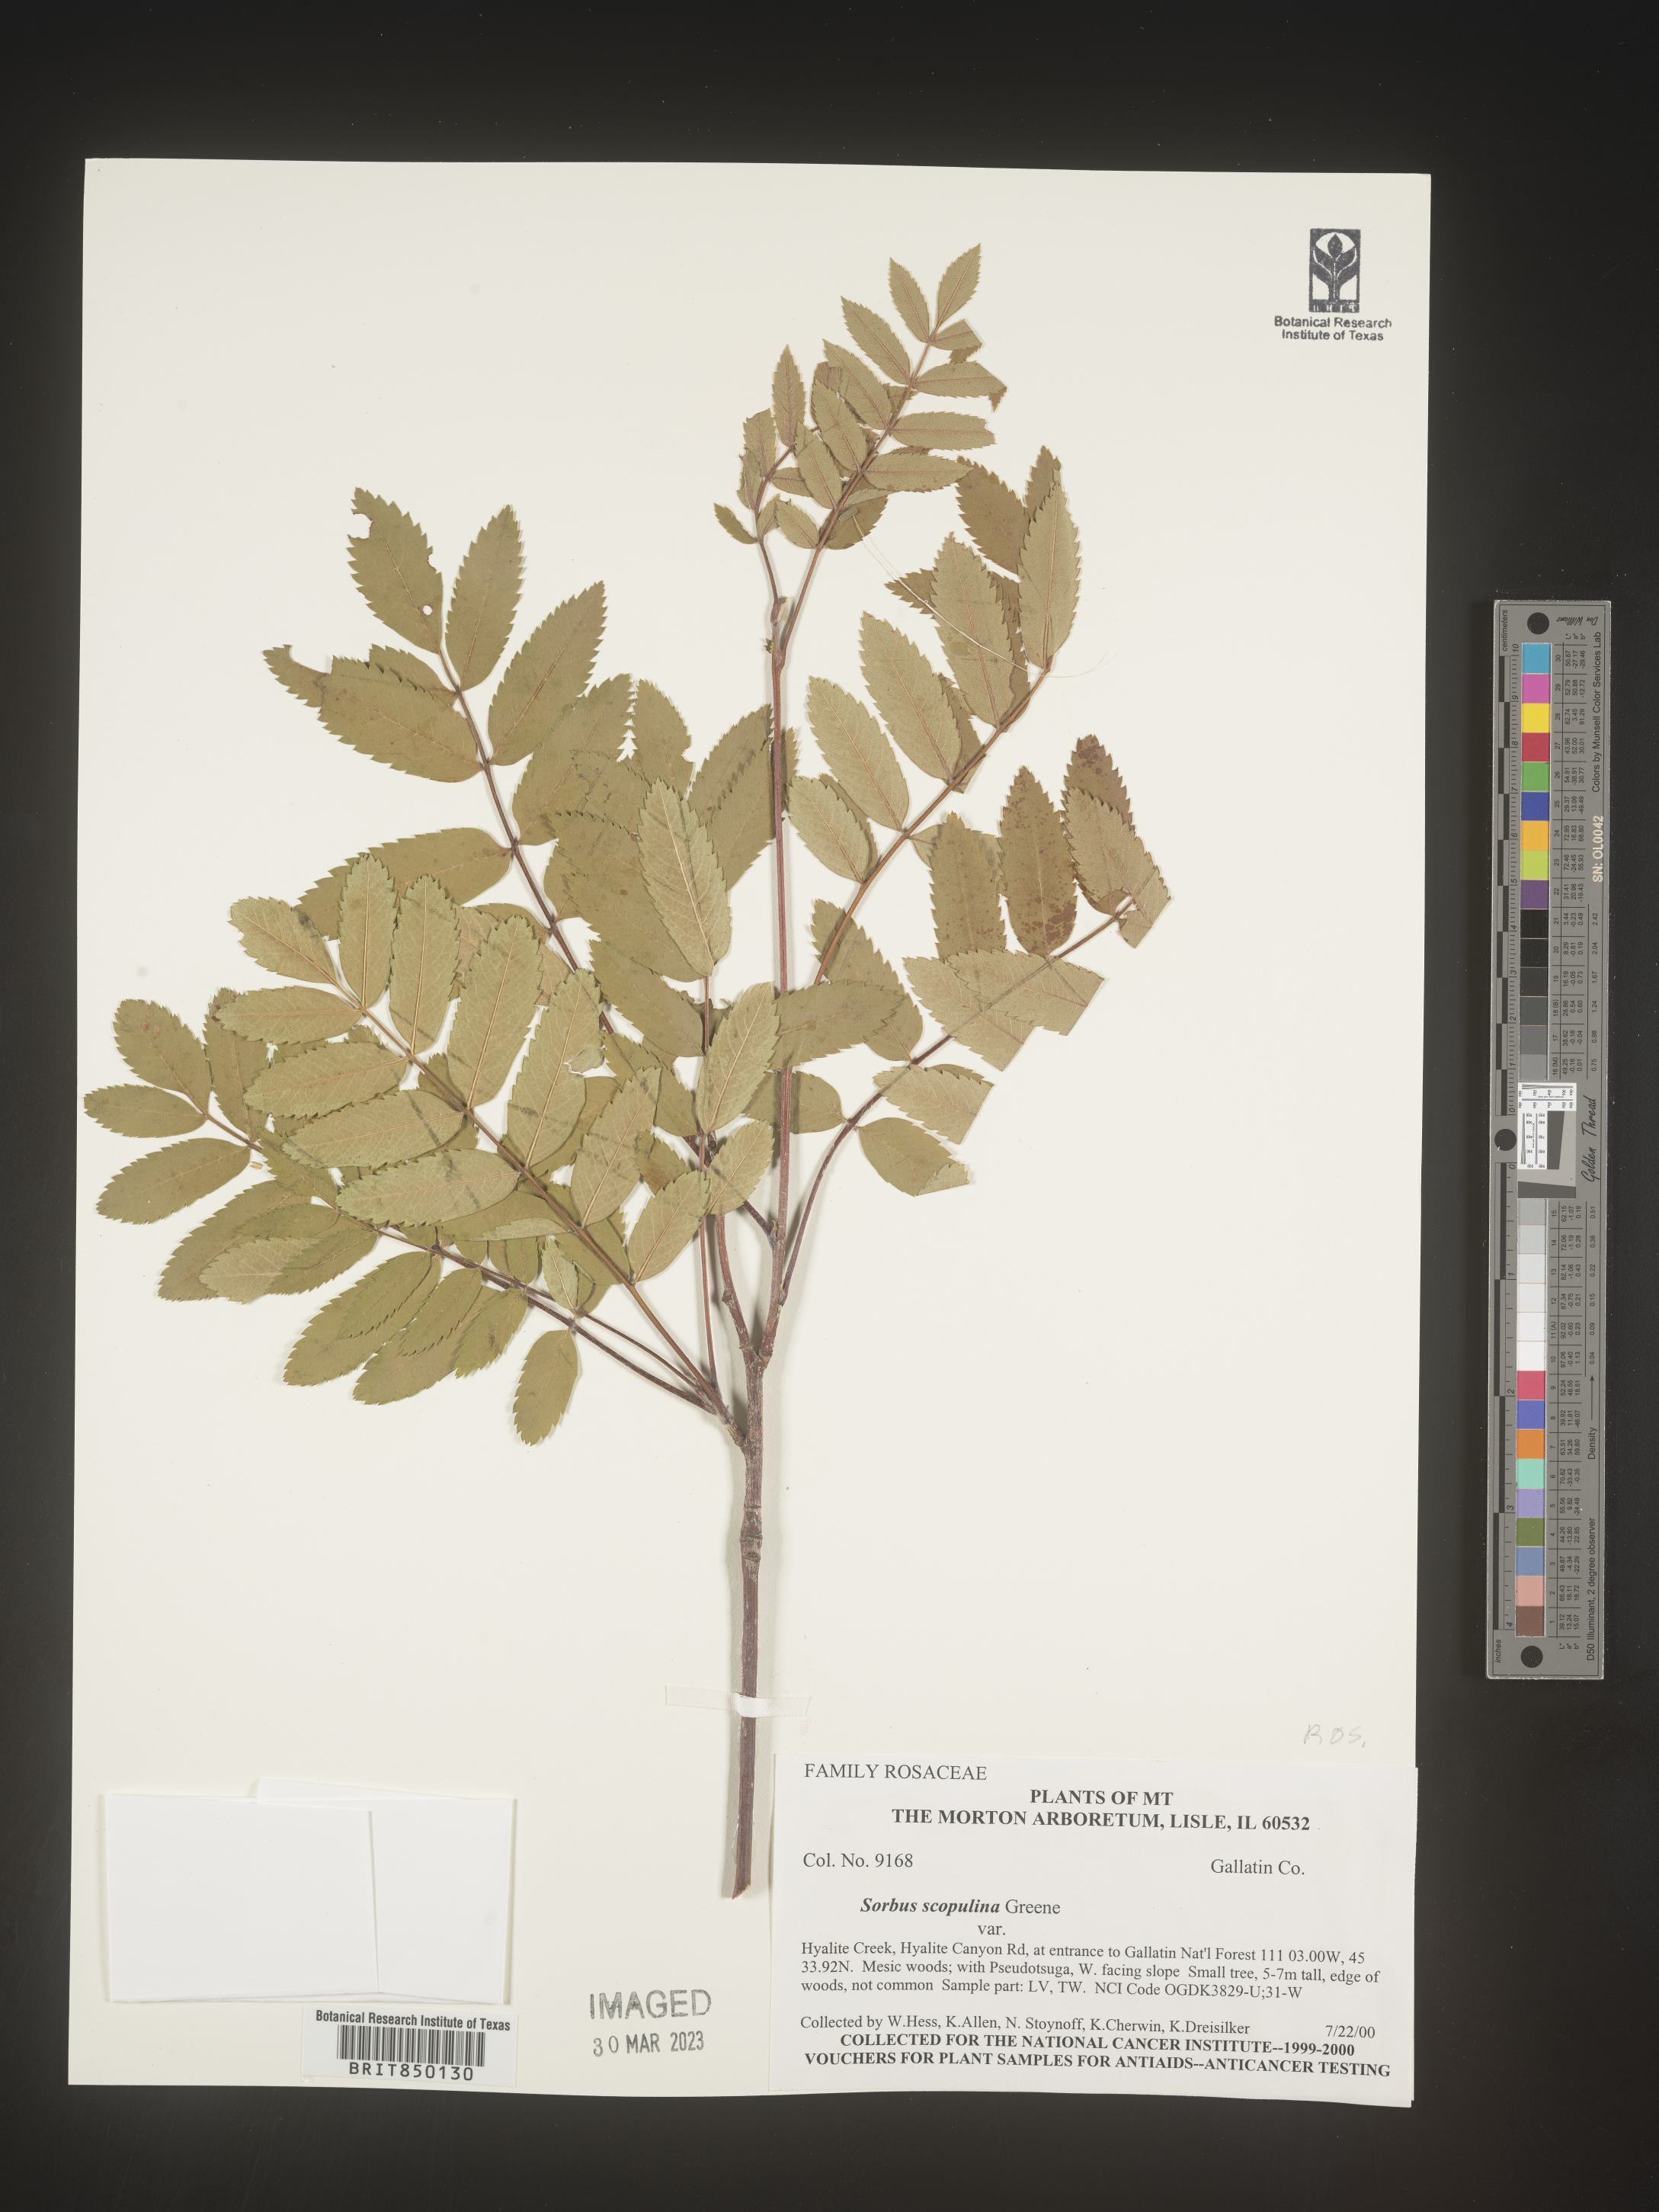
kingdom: Plantae
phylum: Tracheophyta
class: Magnoliopsida
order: Rosales
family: Rosaceae
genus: Sorbus
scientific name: Sorbus scopulina
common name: Greene's mountain-ash
